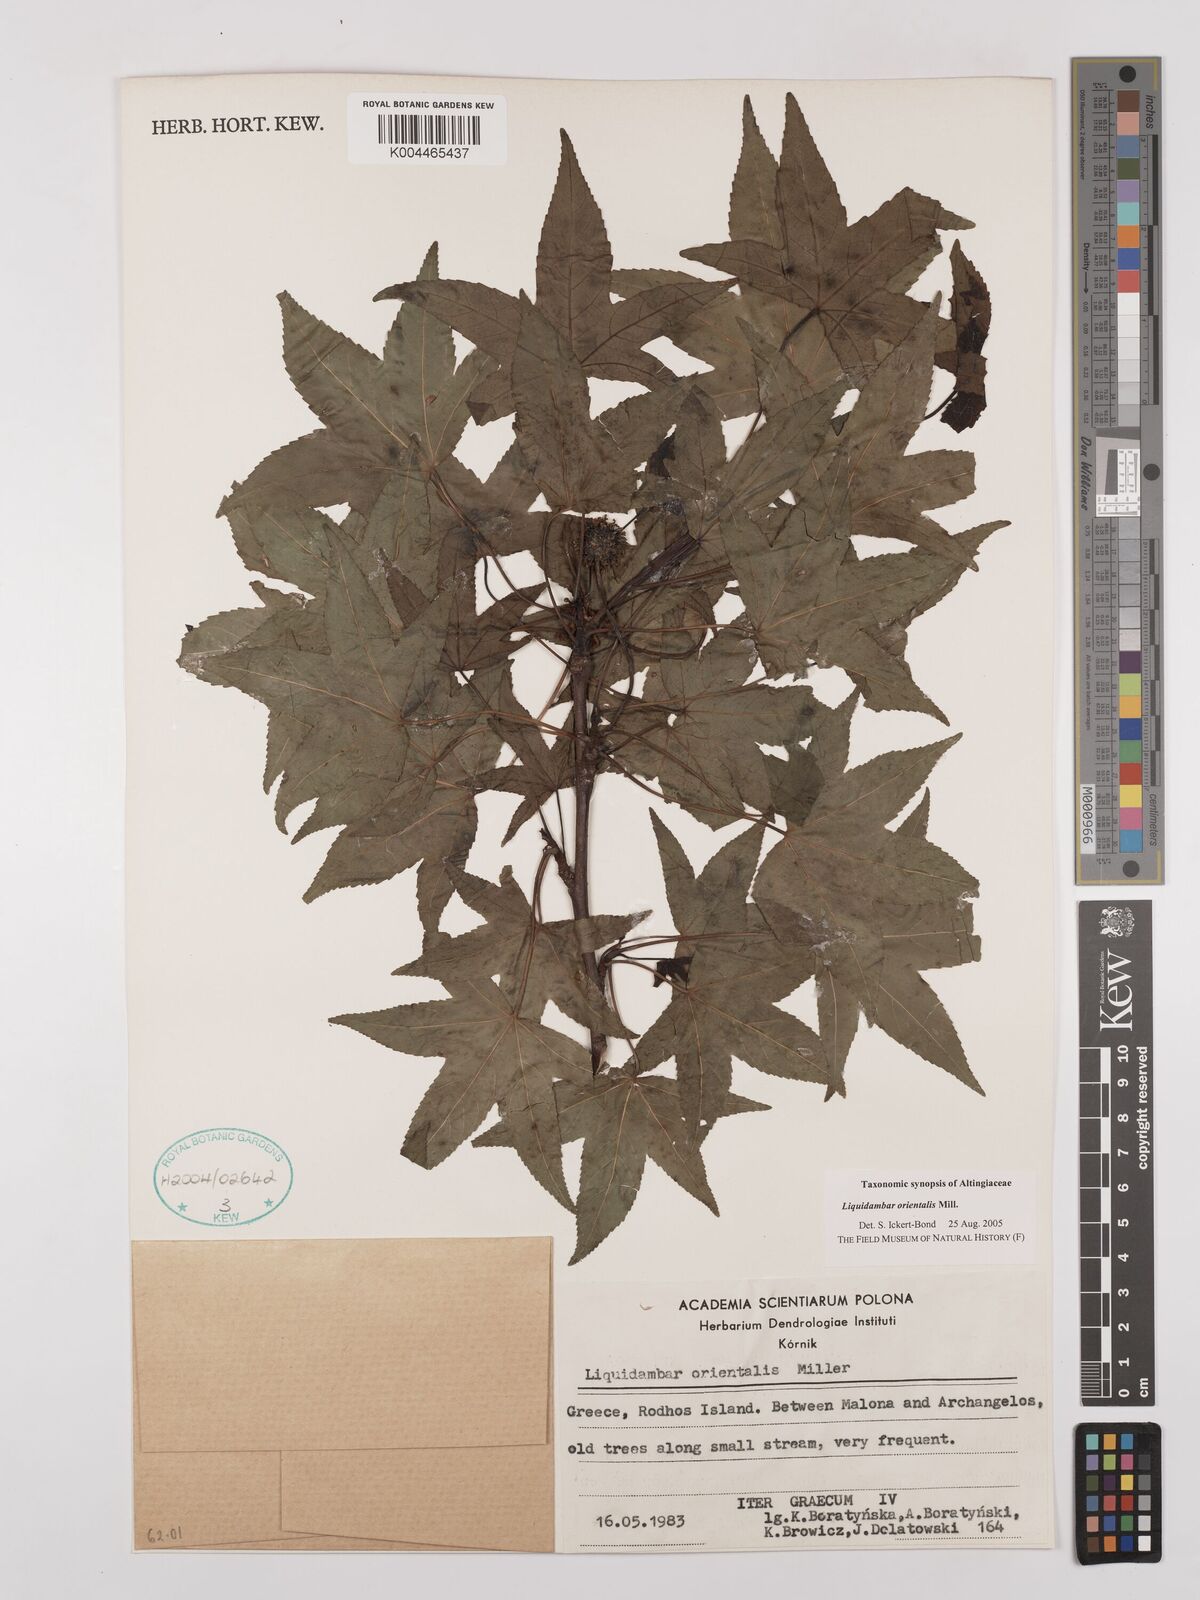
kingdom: Plantae
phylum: Tracheophyta
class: Magnoliopsida
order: Saxifragales
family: Altingiaceae
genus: Liquidambar
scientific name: Liquidambar orientalis
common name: Oriental sweetgum
